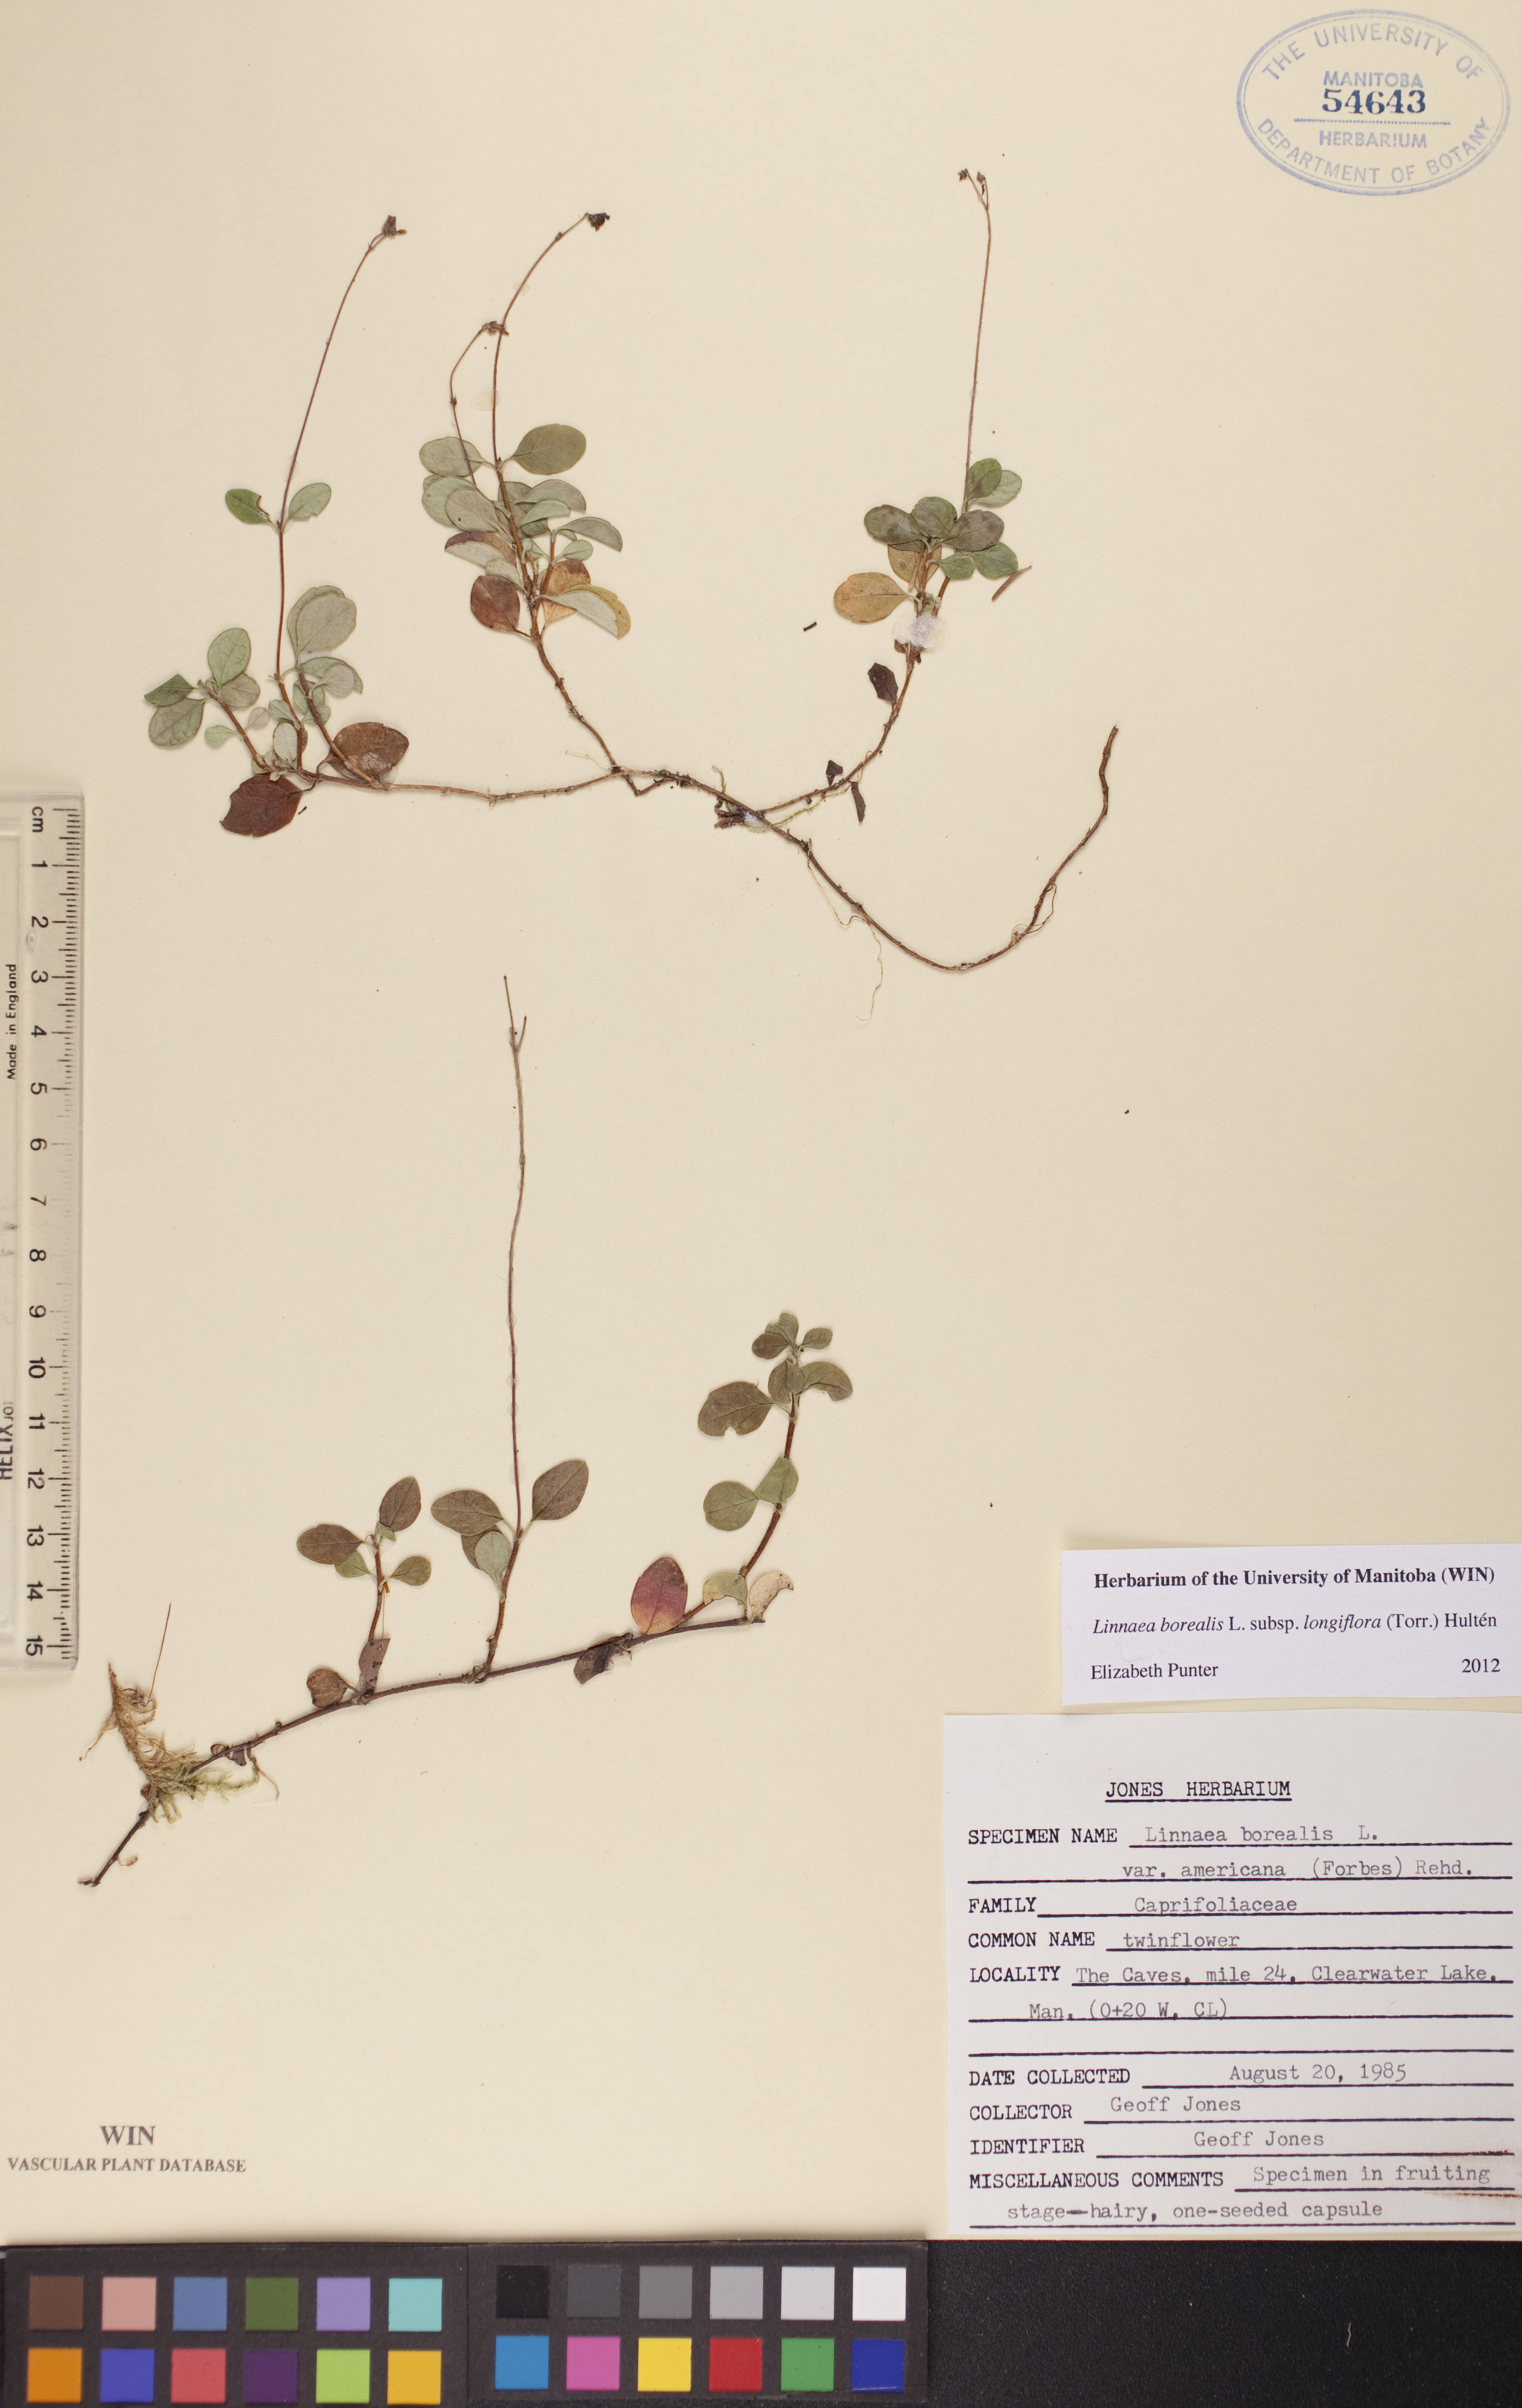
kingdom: Plantae
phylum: Tracheophyta
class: Magnoliopsida
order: Dipsacales
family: Caprifoliaceae
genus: Linnaea
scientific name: Linnaea borealis
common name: Twinflower
